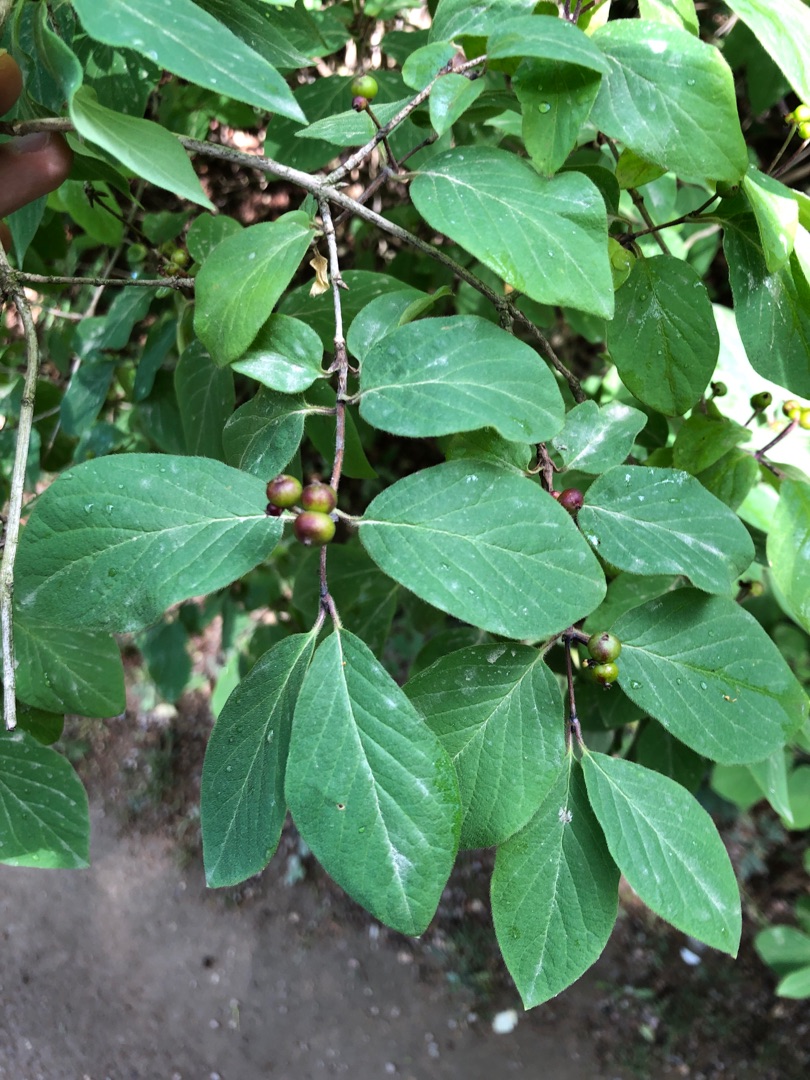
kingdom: Plantae
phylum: Tracheophyta
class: Magnoliopsida
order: Dipsacales
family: Caprifoliaceae
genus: Lonicera
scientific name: Lonicera xylosteum
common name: Dunet gedeblad
